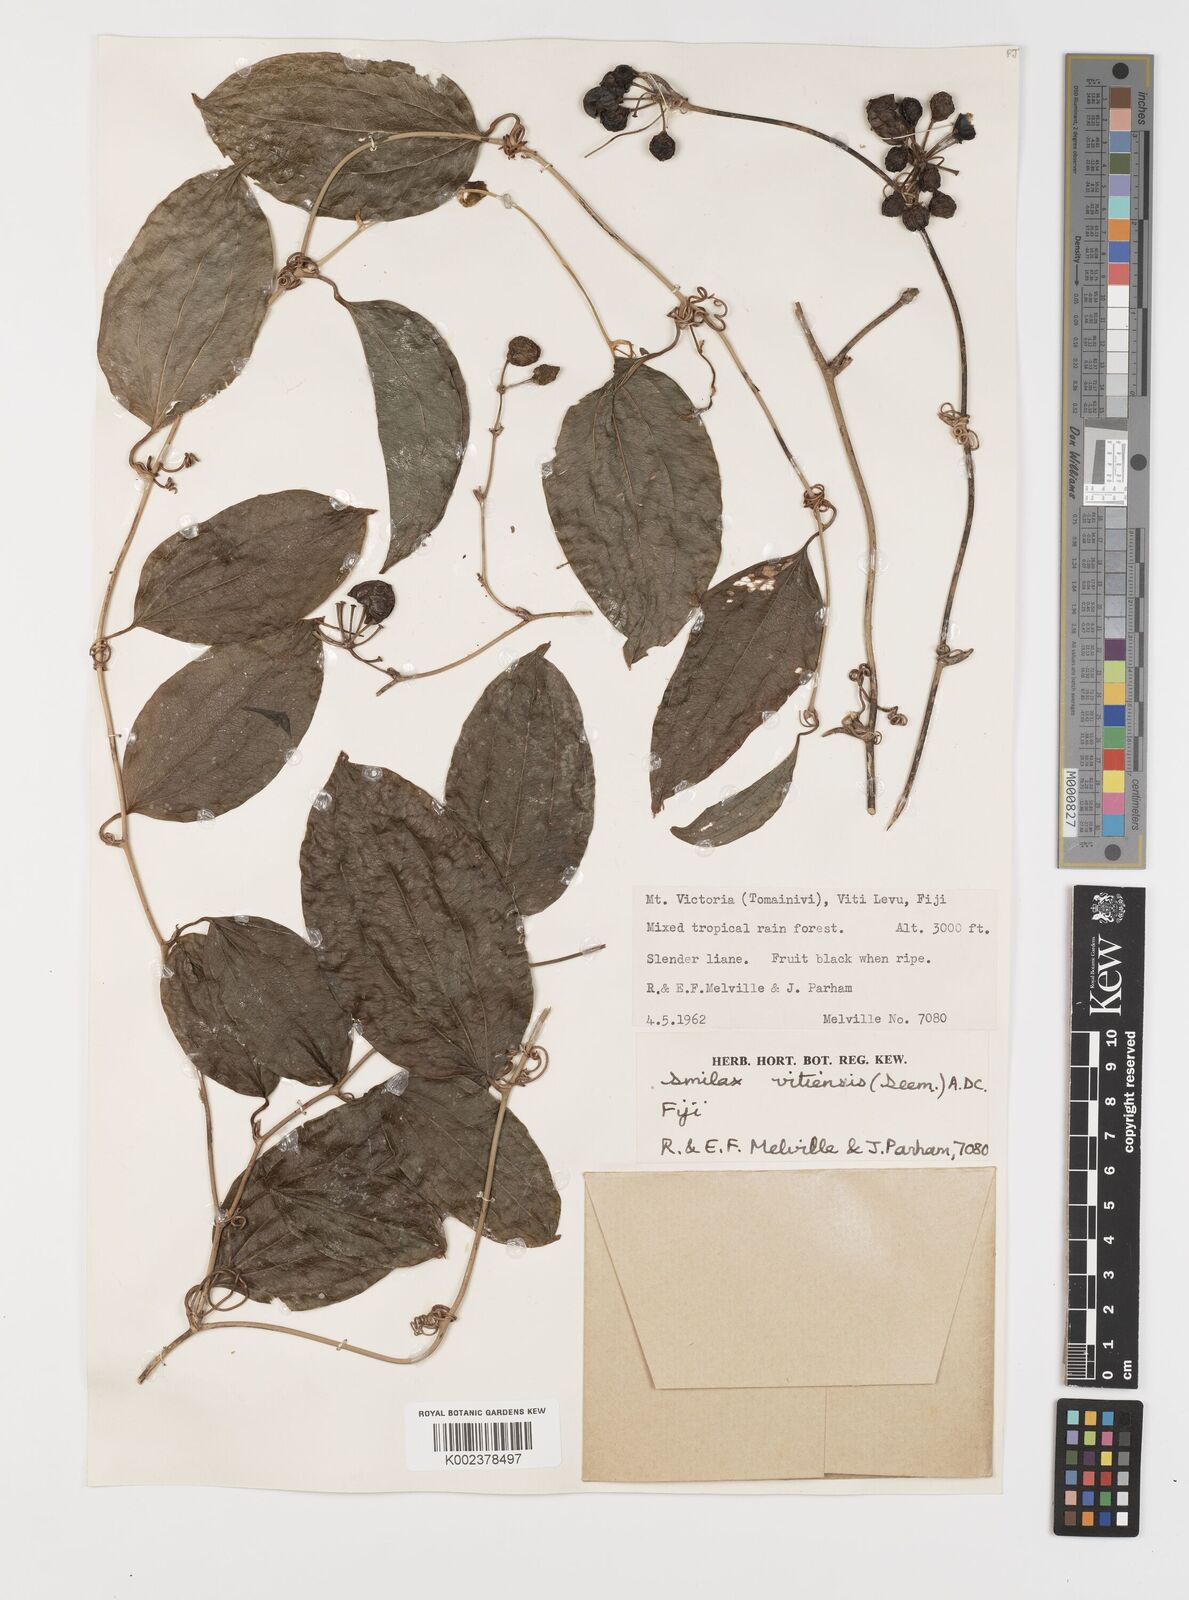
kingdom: Plantae
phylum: Tracheophyta
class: Liliopsida
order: Liliales
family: Smilacaceae
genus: Smilax
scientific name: Smilax vitiensis
